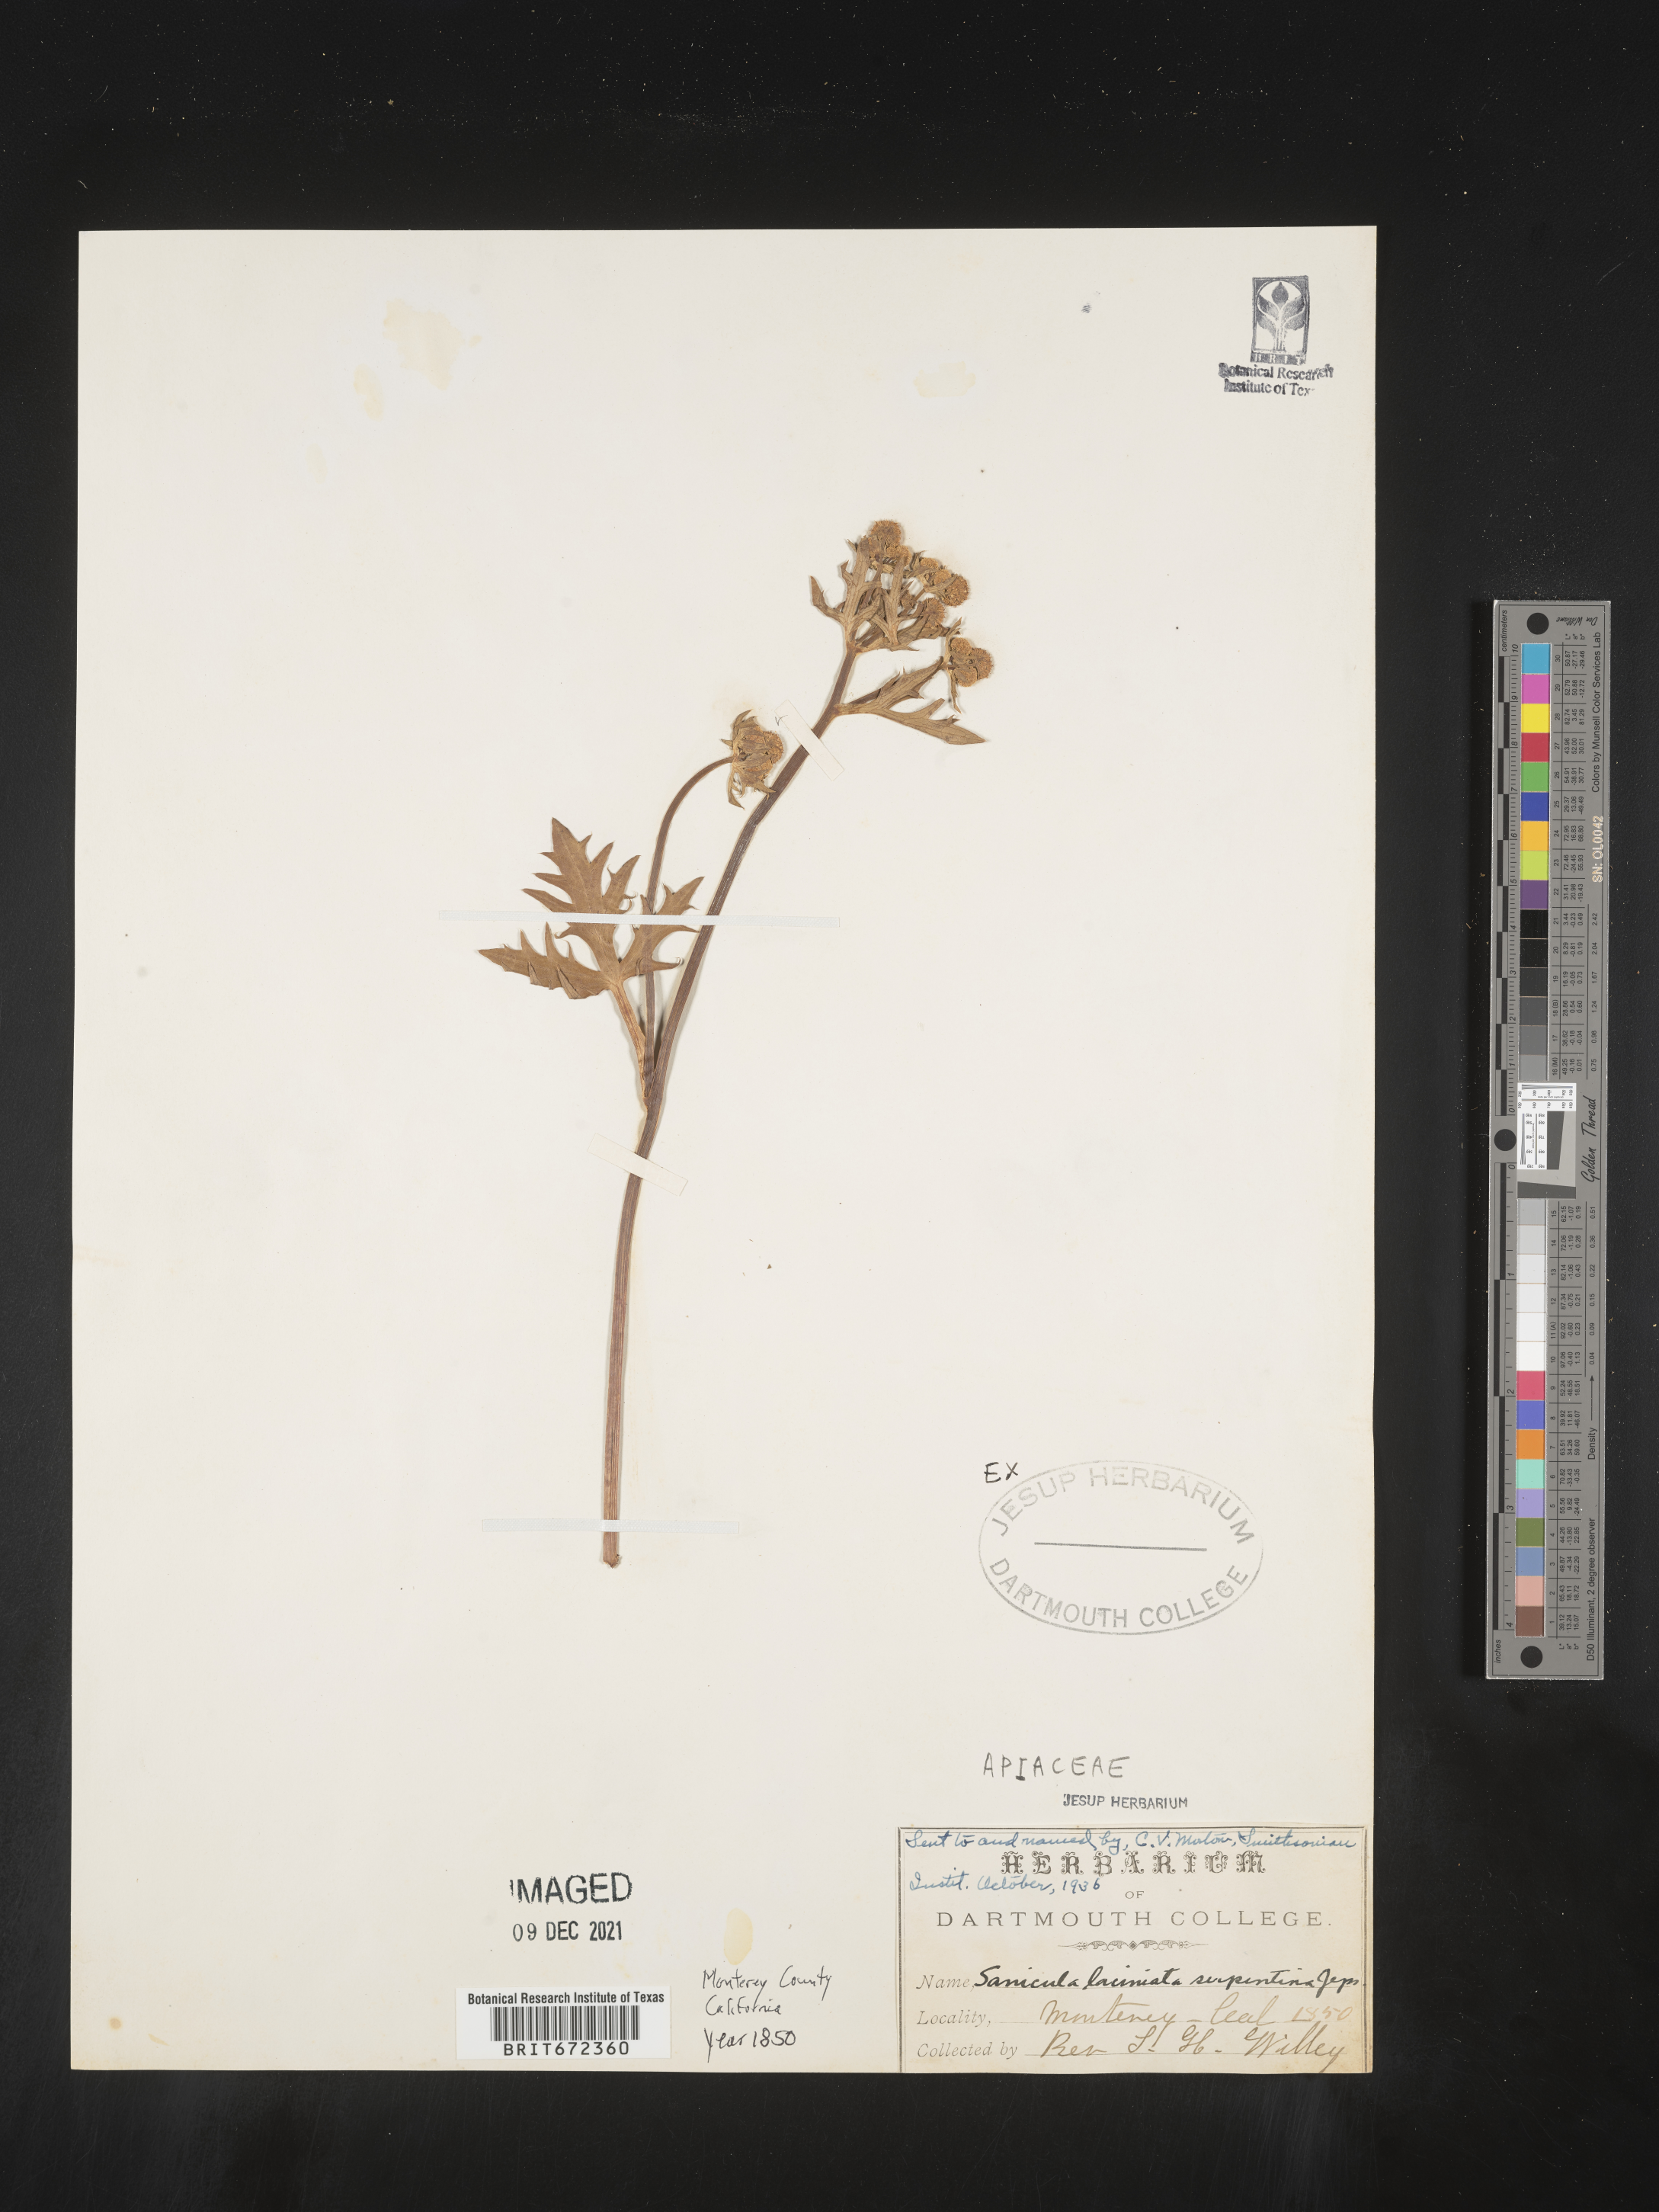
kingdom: Plantae
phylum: Tracheophyta
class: Magnoliopsida
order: Apiales
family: Apiaceae
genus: Sanicula
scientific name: Sanicula
